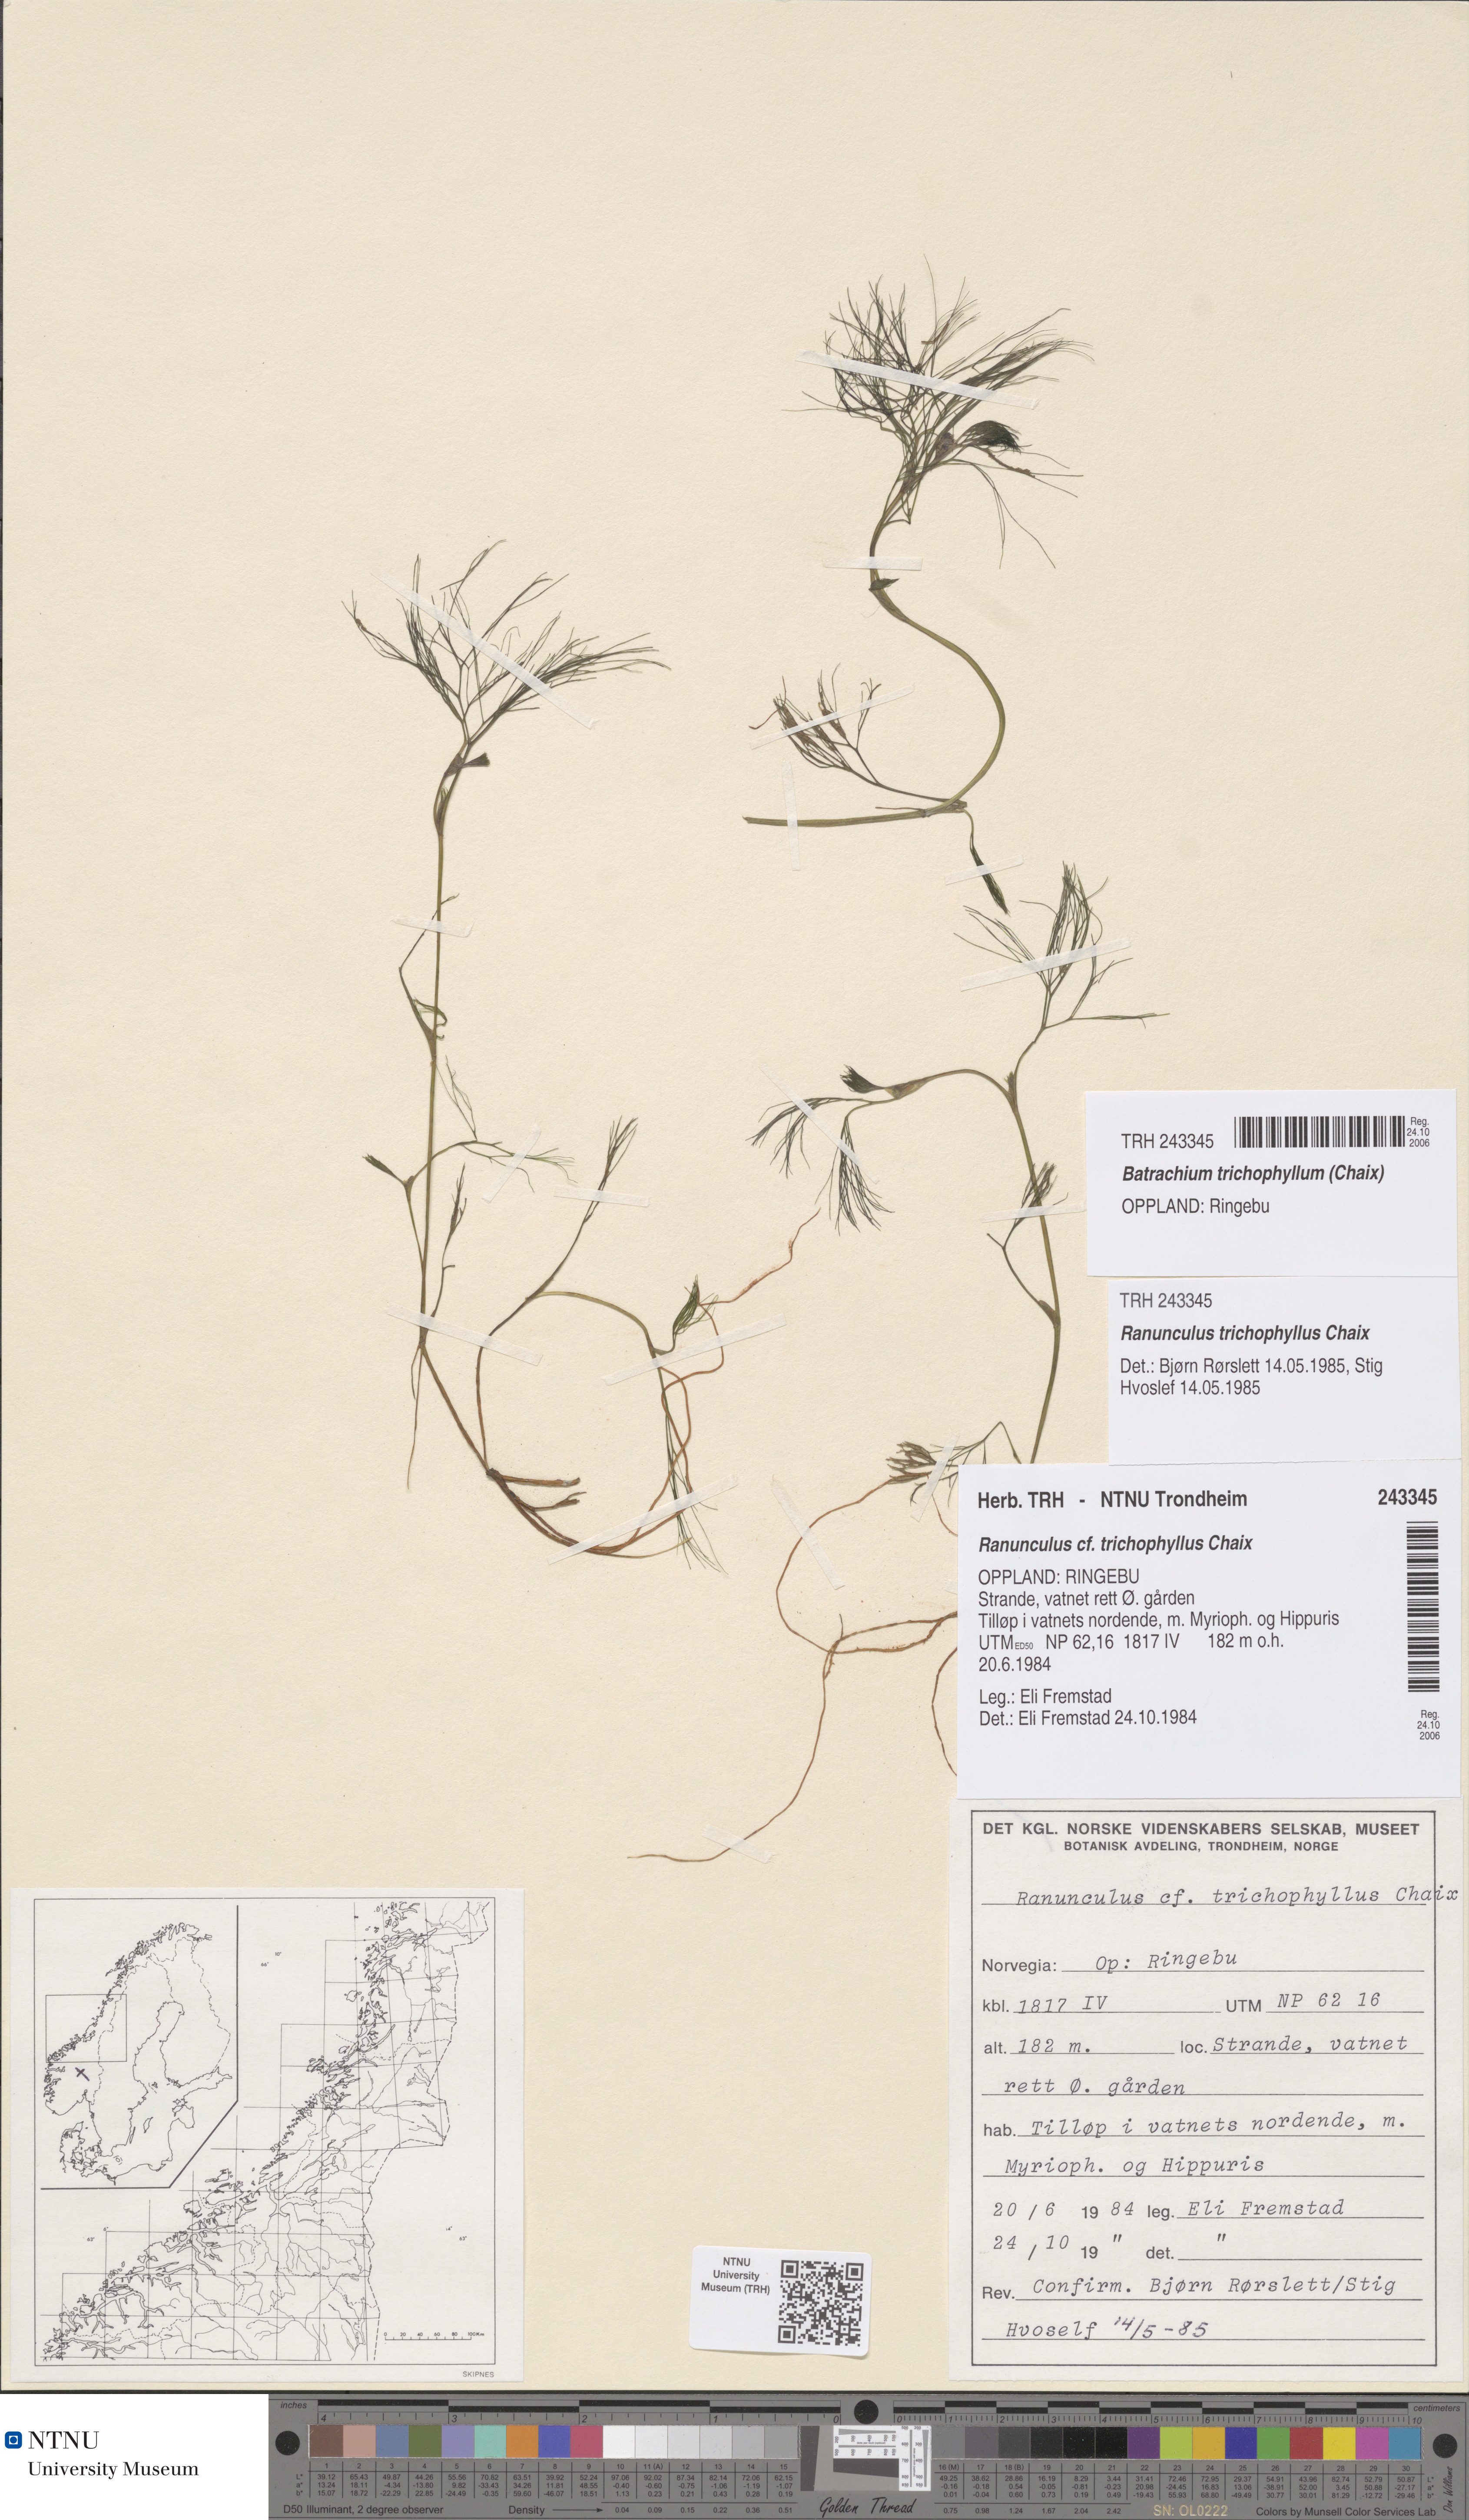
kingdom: Plantae
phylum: Tracheophyta
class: Magnoliopsida
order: Ranunculales
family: Ranunculaceae
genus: Ranunculus
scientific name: Ranunculus trichophyllus
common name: Thread-leaved water-crowfoot
